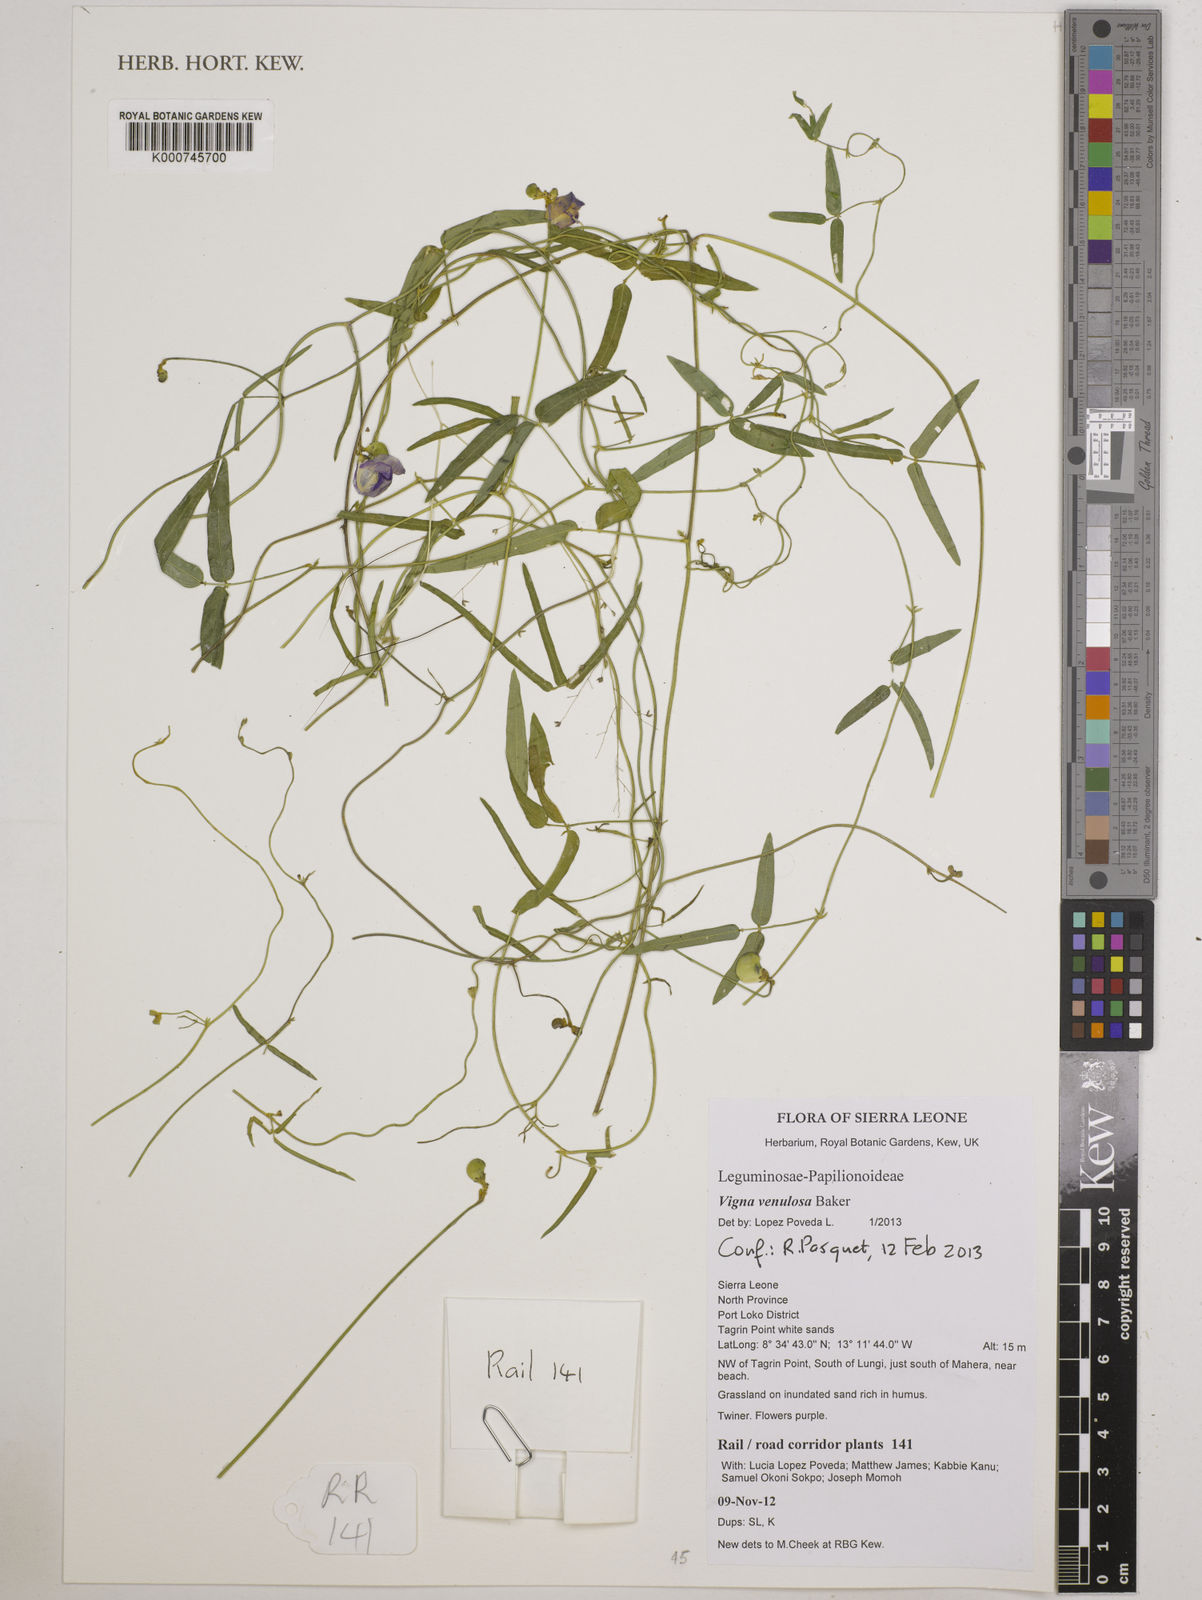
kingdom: Plantae
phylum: Tracheophyta
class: Magnoliopsida
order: Fabales
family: Fabaceae
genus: Vigna
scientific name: Vigna venulosa
